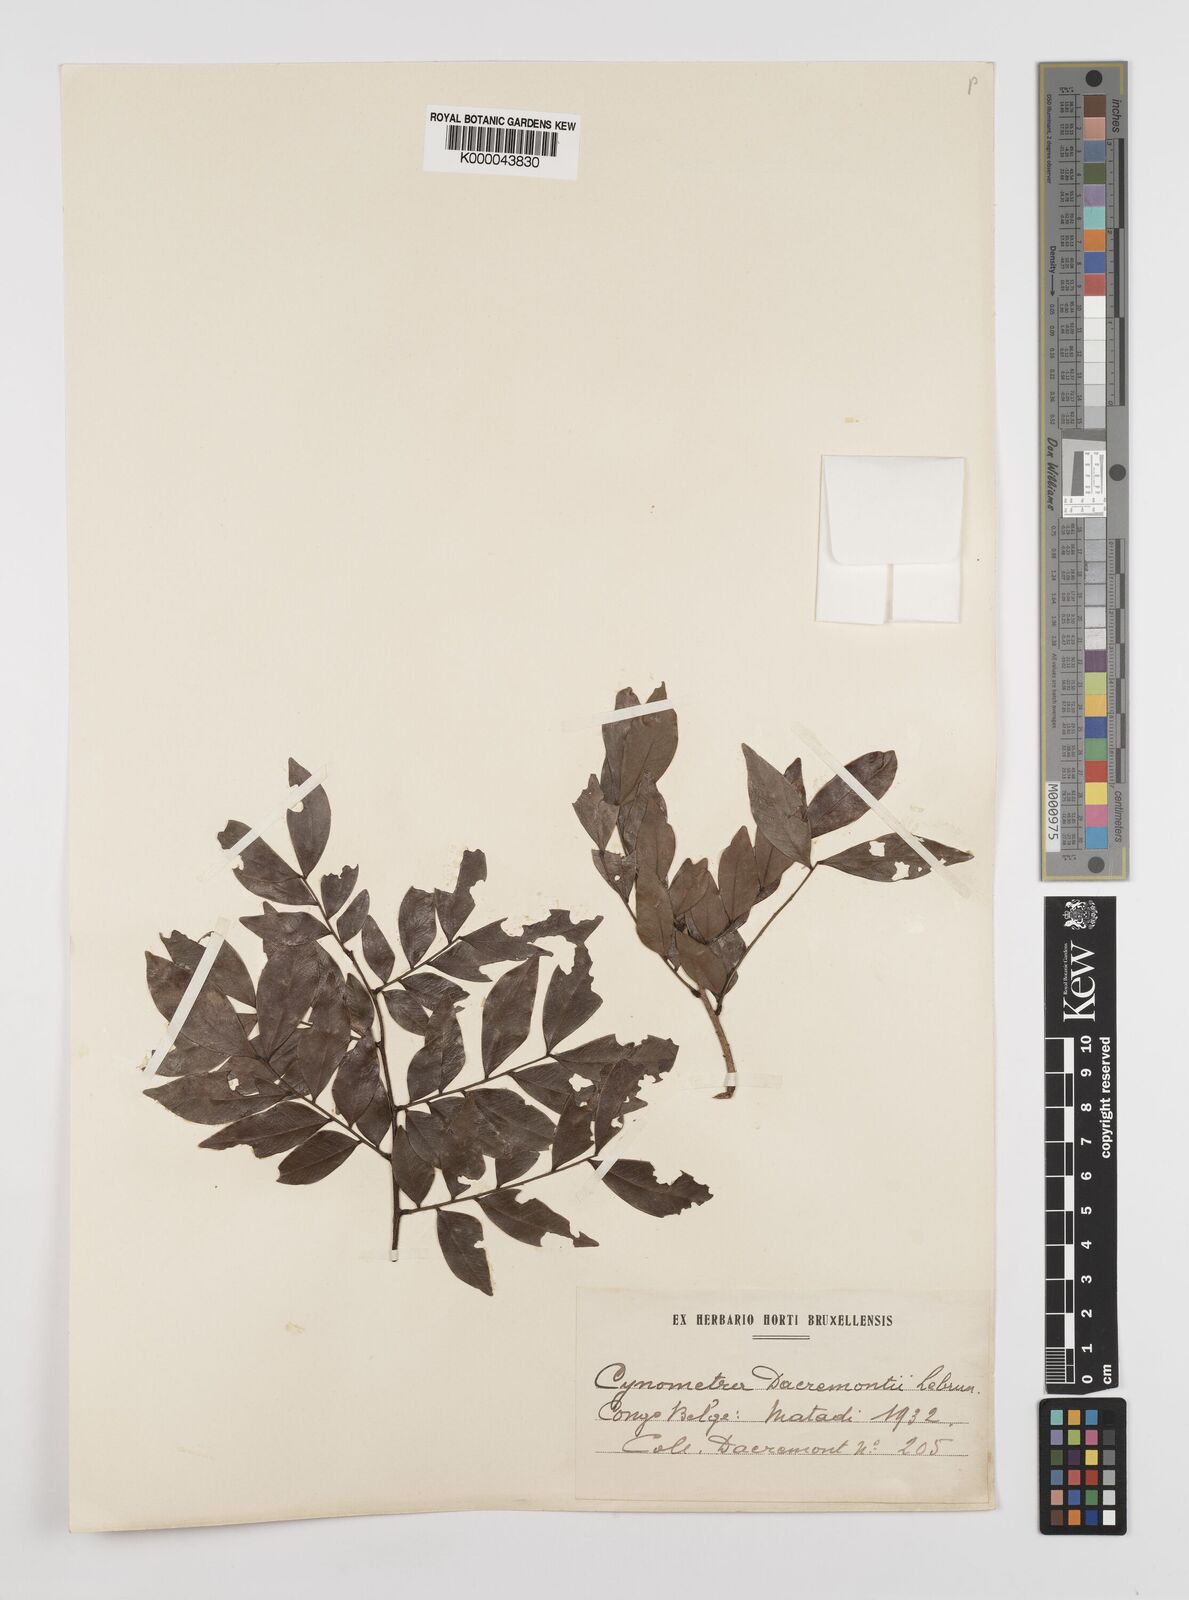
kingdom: Plantae
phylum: Tracheophyta
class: Magnoliopsida
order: Fabales
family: Fabaceae
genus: Guibourtia
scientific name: Guibourtia
